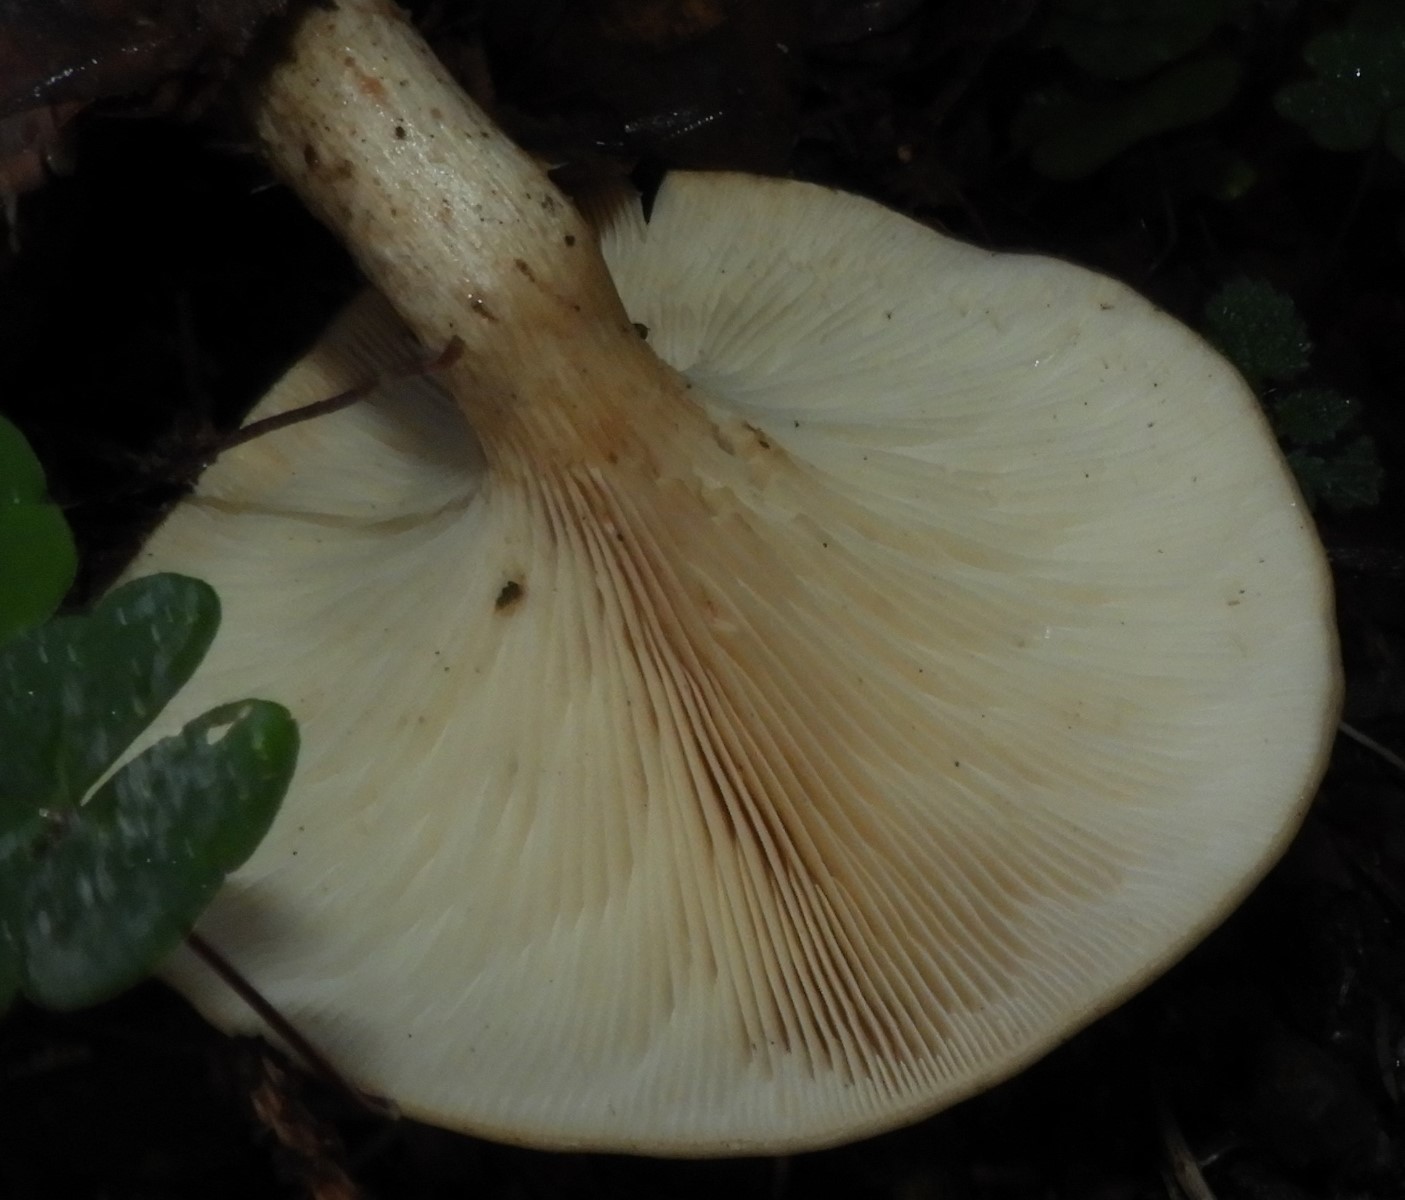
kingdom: Fungi
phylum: Basidiomycota
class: Agaricomycetes
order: Agaricales
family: Tricholomataceae
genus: Paralepista
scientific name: Paralepista flaccida
